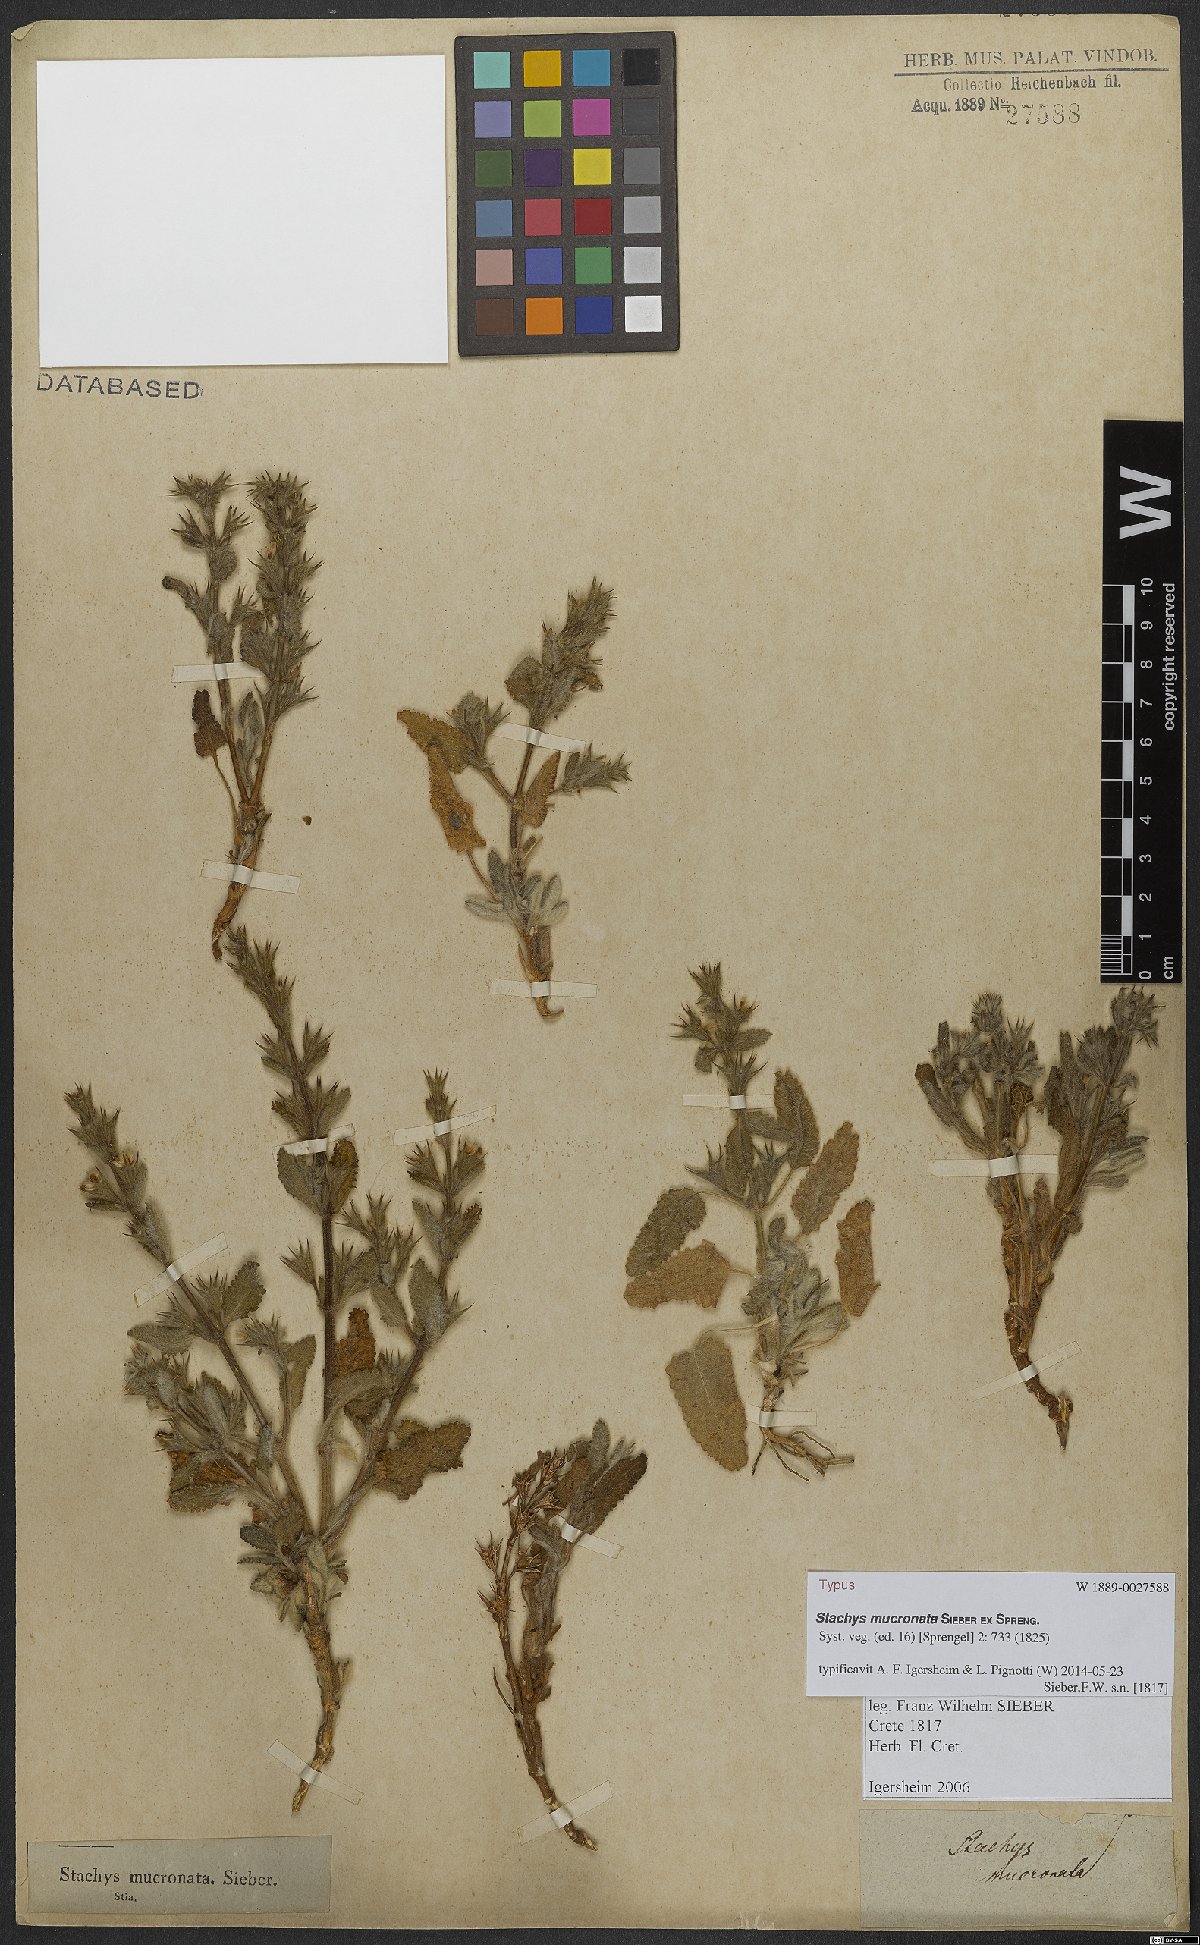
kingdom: Plantae
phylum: Tracheophyta
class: Magnoliopsida
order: Lamiales
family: Lamiaceae
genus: Stachys
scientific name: Stachys mucronata
